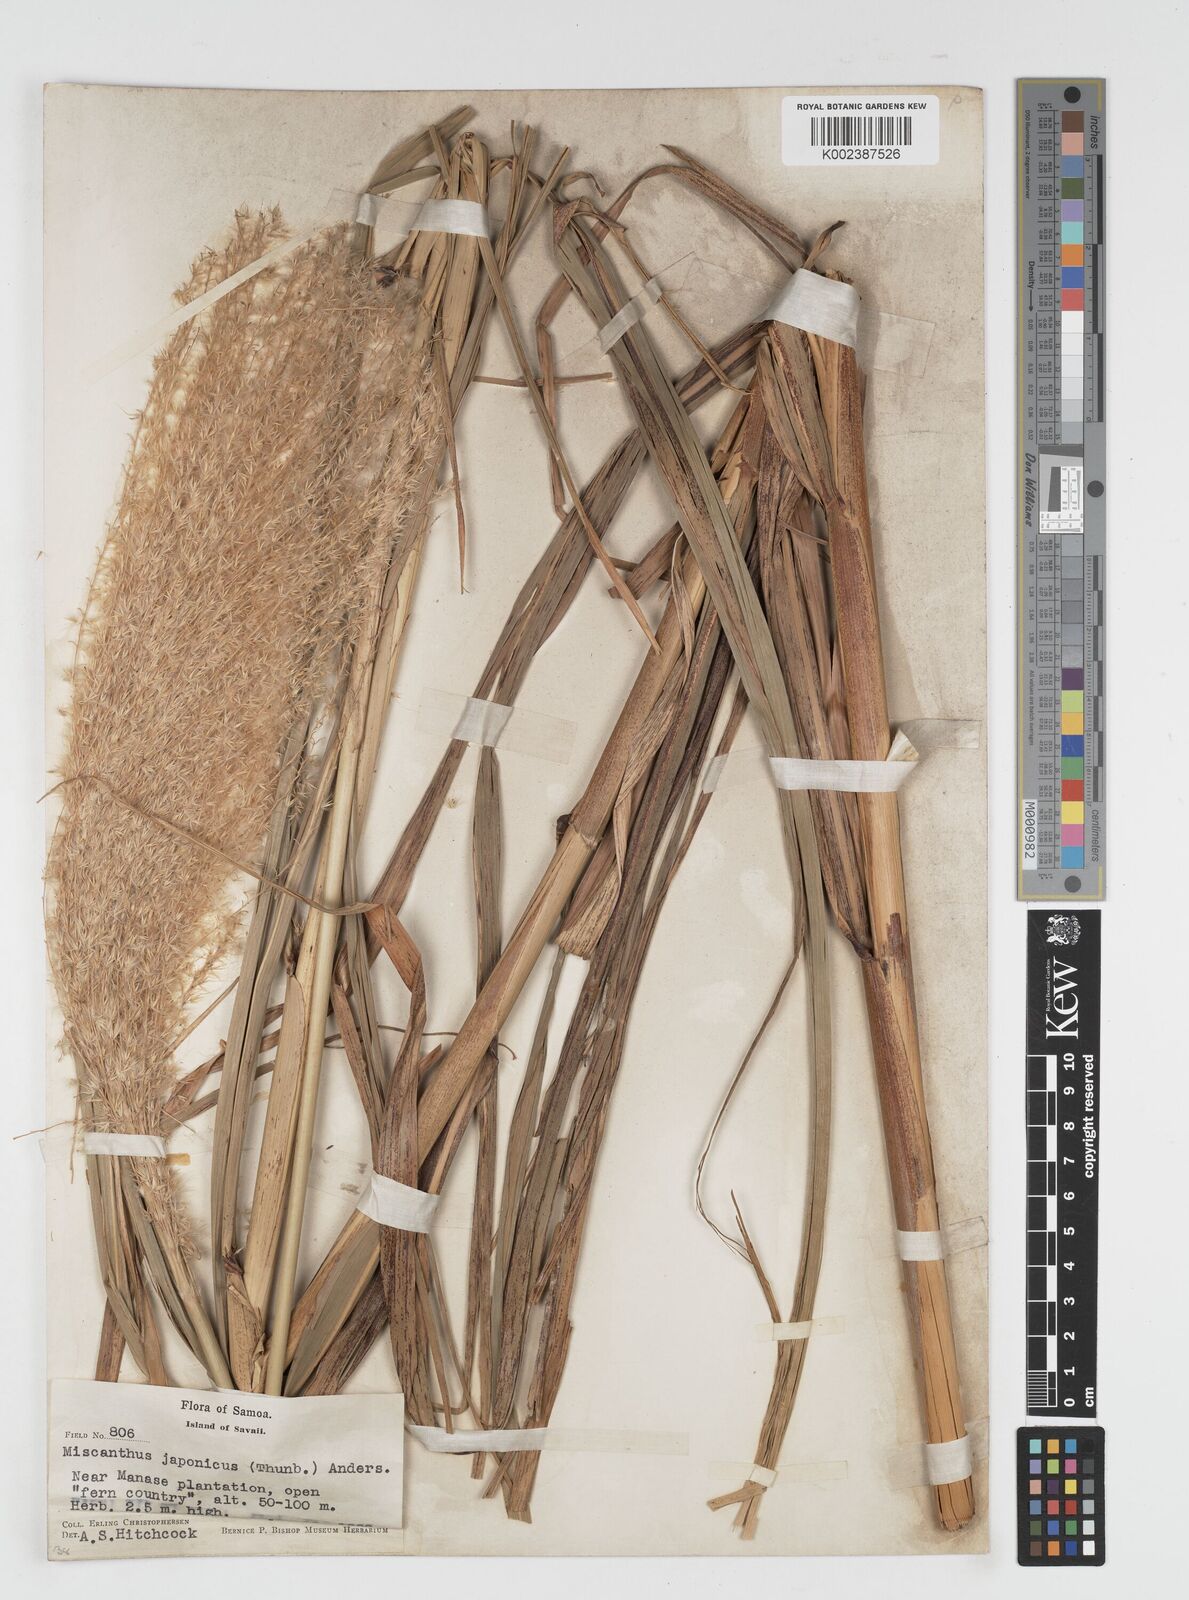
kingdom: Plantae
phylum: Tracheophyta
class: Liliopsida
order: Poales
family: Poaceae
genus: Miscanthus
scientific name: Miscanthus floridulus
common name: Pacific island silvergrass
